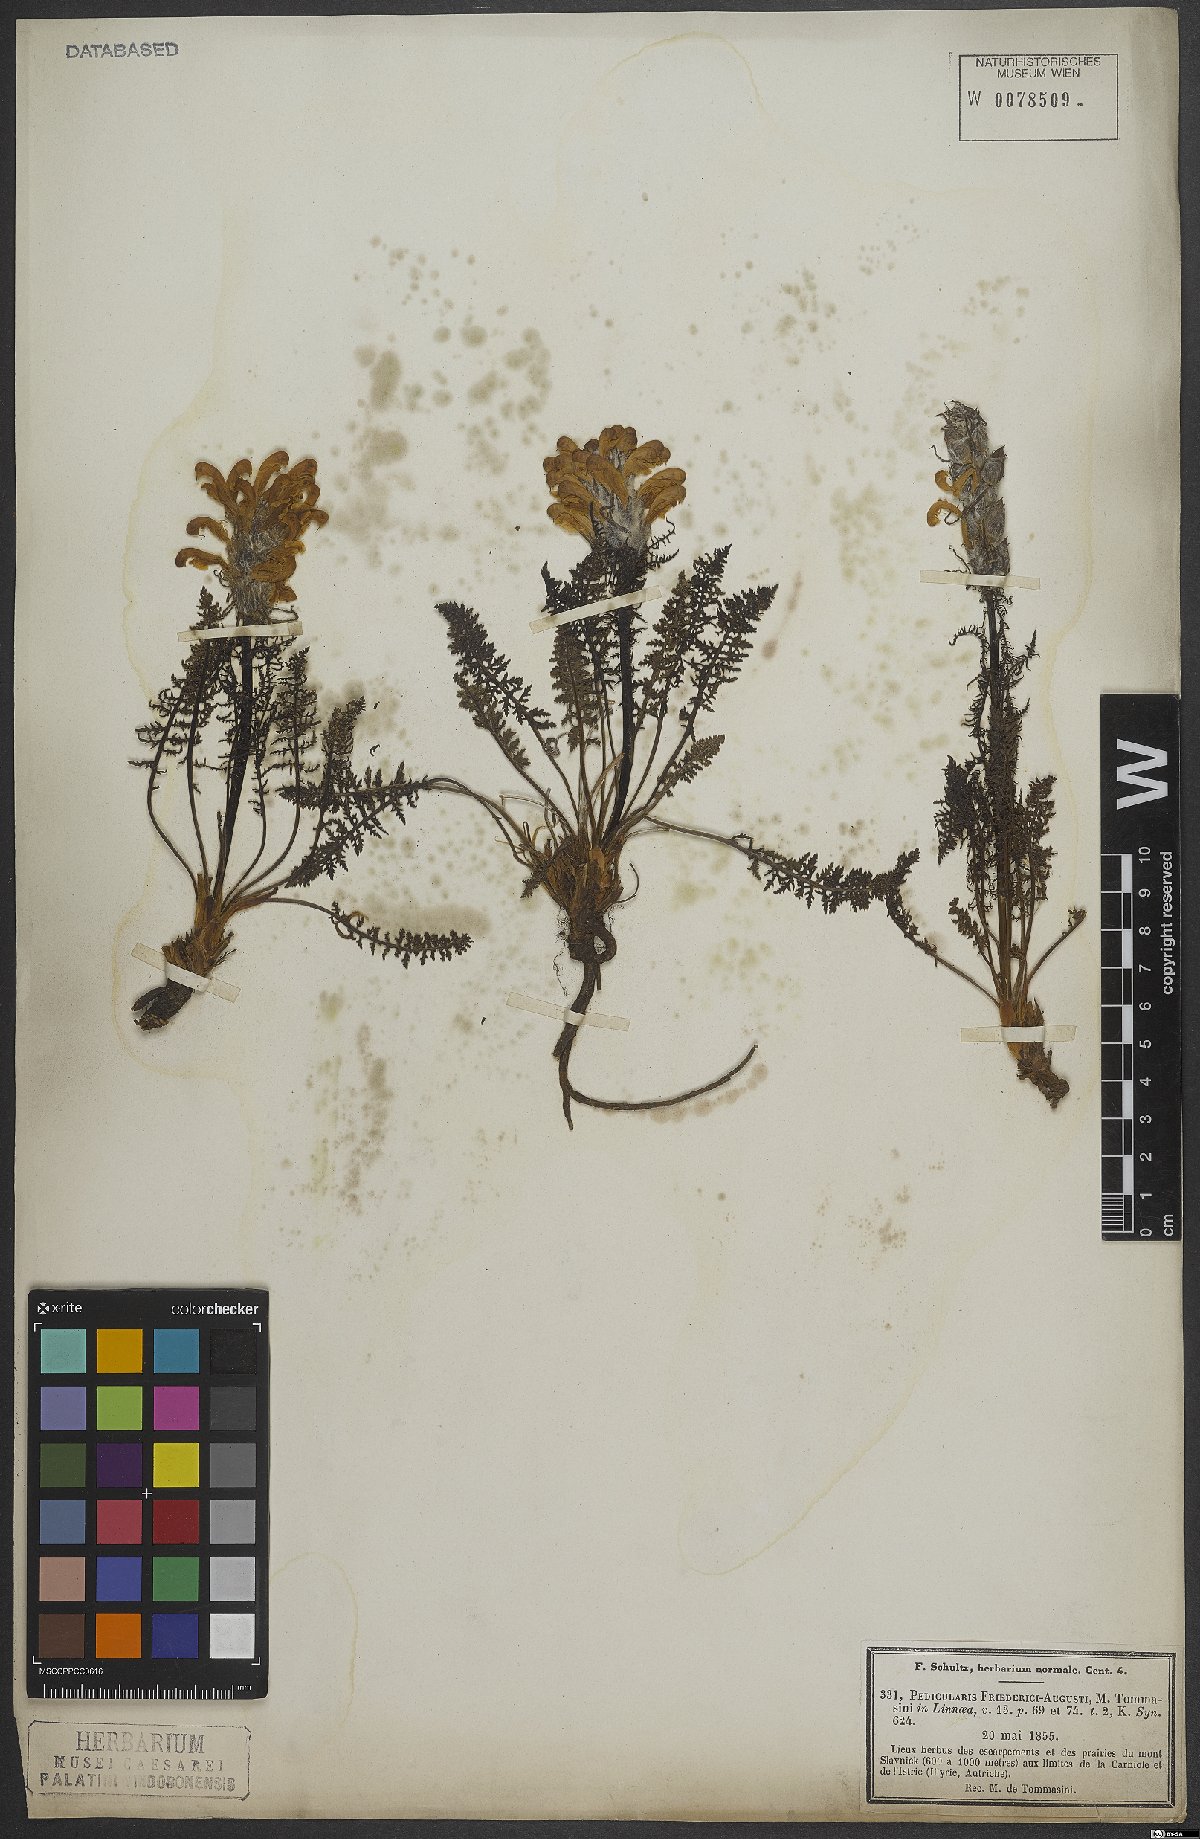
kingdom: Plantae
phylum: Tracheophyta
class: Magnoliopsida
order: Lamiales
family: Orobanchaceae
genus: Pedicularis
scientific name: Pedicularis friderici-augusti
